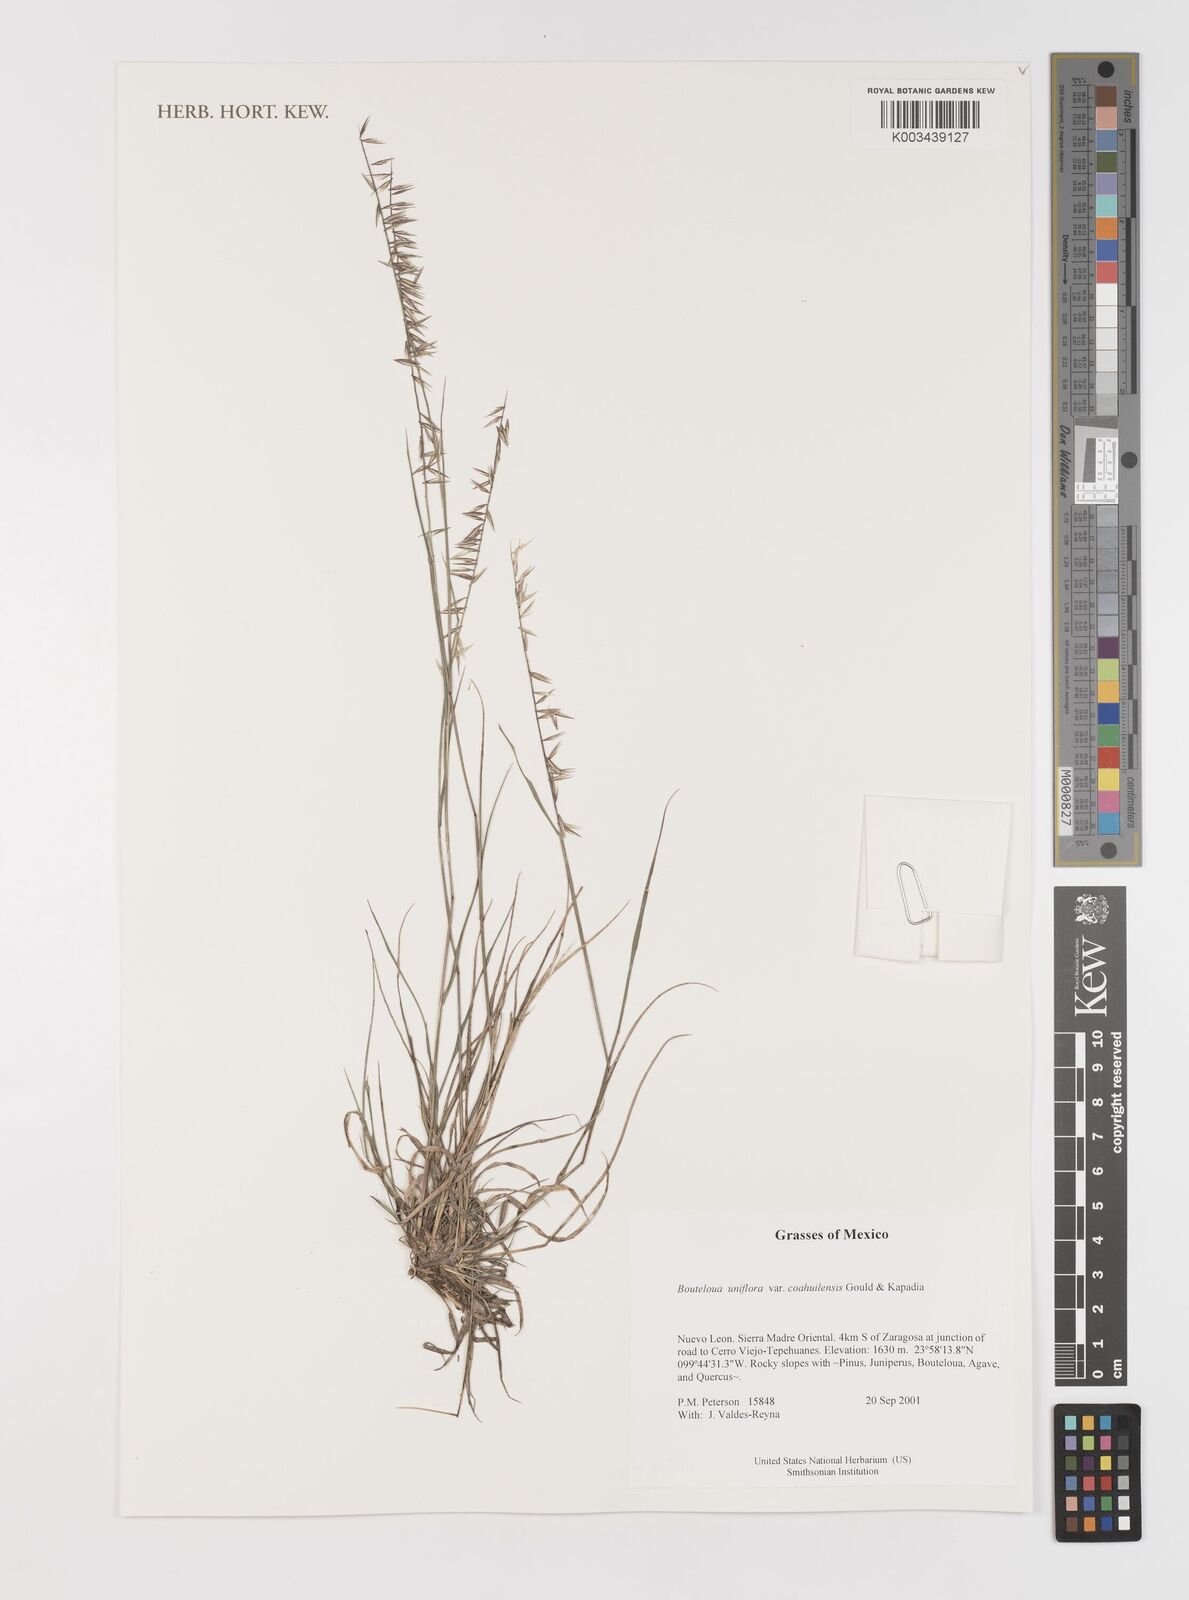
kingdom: Plantae
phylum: Tracheophyta
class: Liliopsida
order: Poales
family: Poaceae
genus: Bouteloua
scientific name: Bouteloua uniflora
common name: Neally's grama
